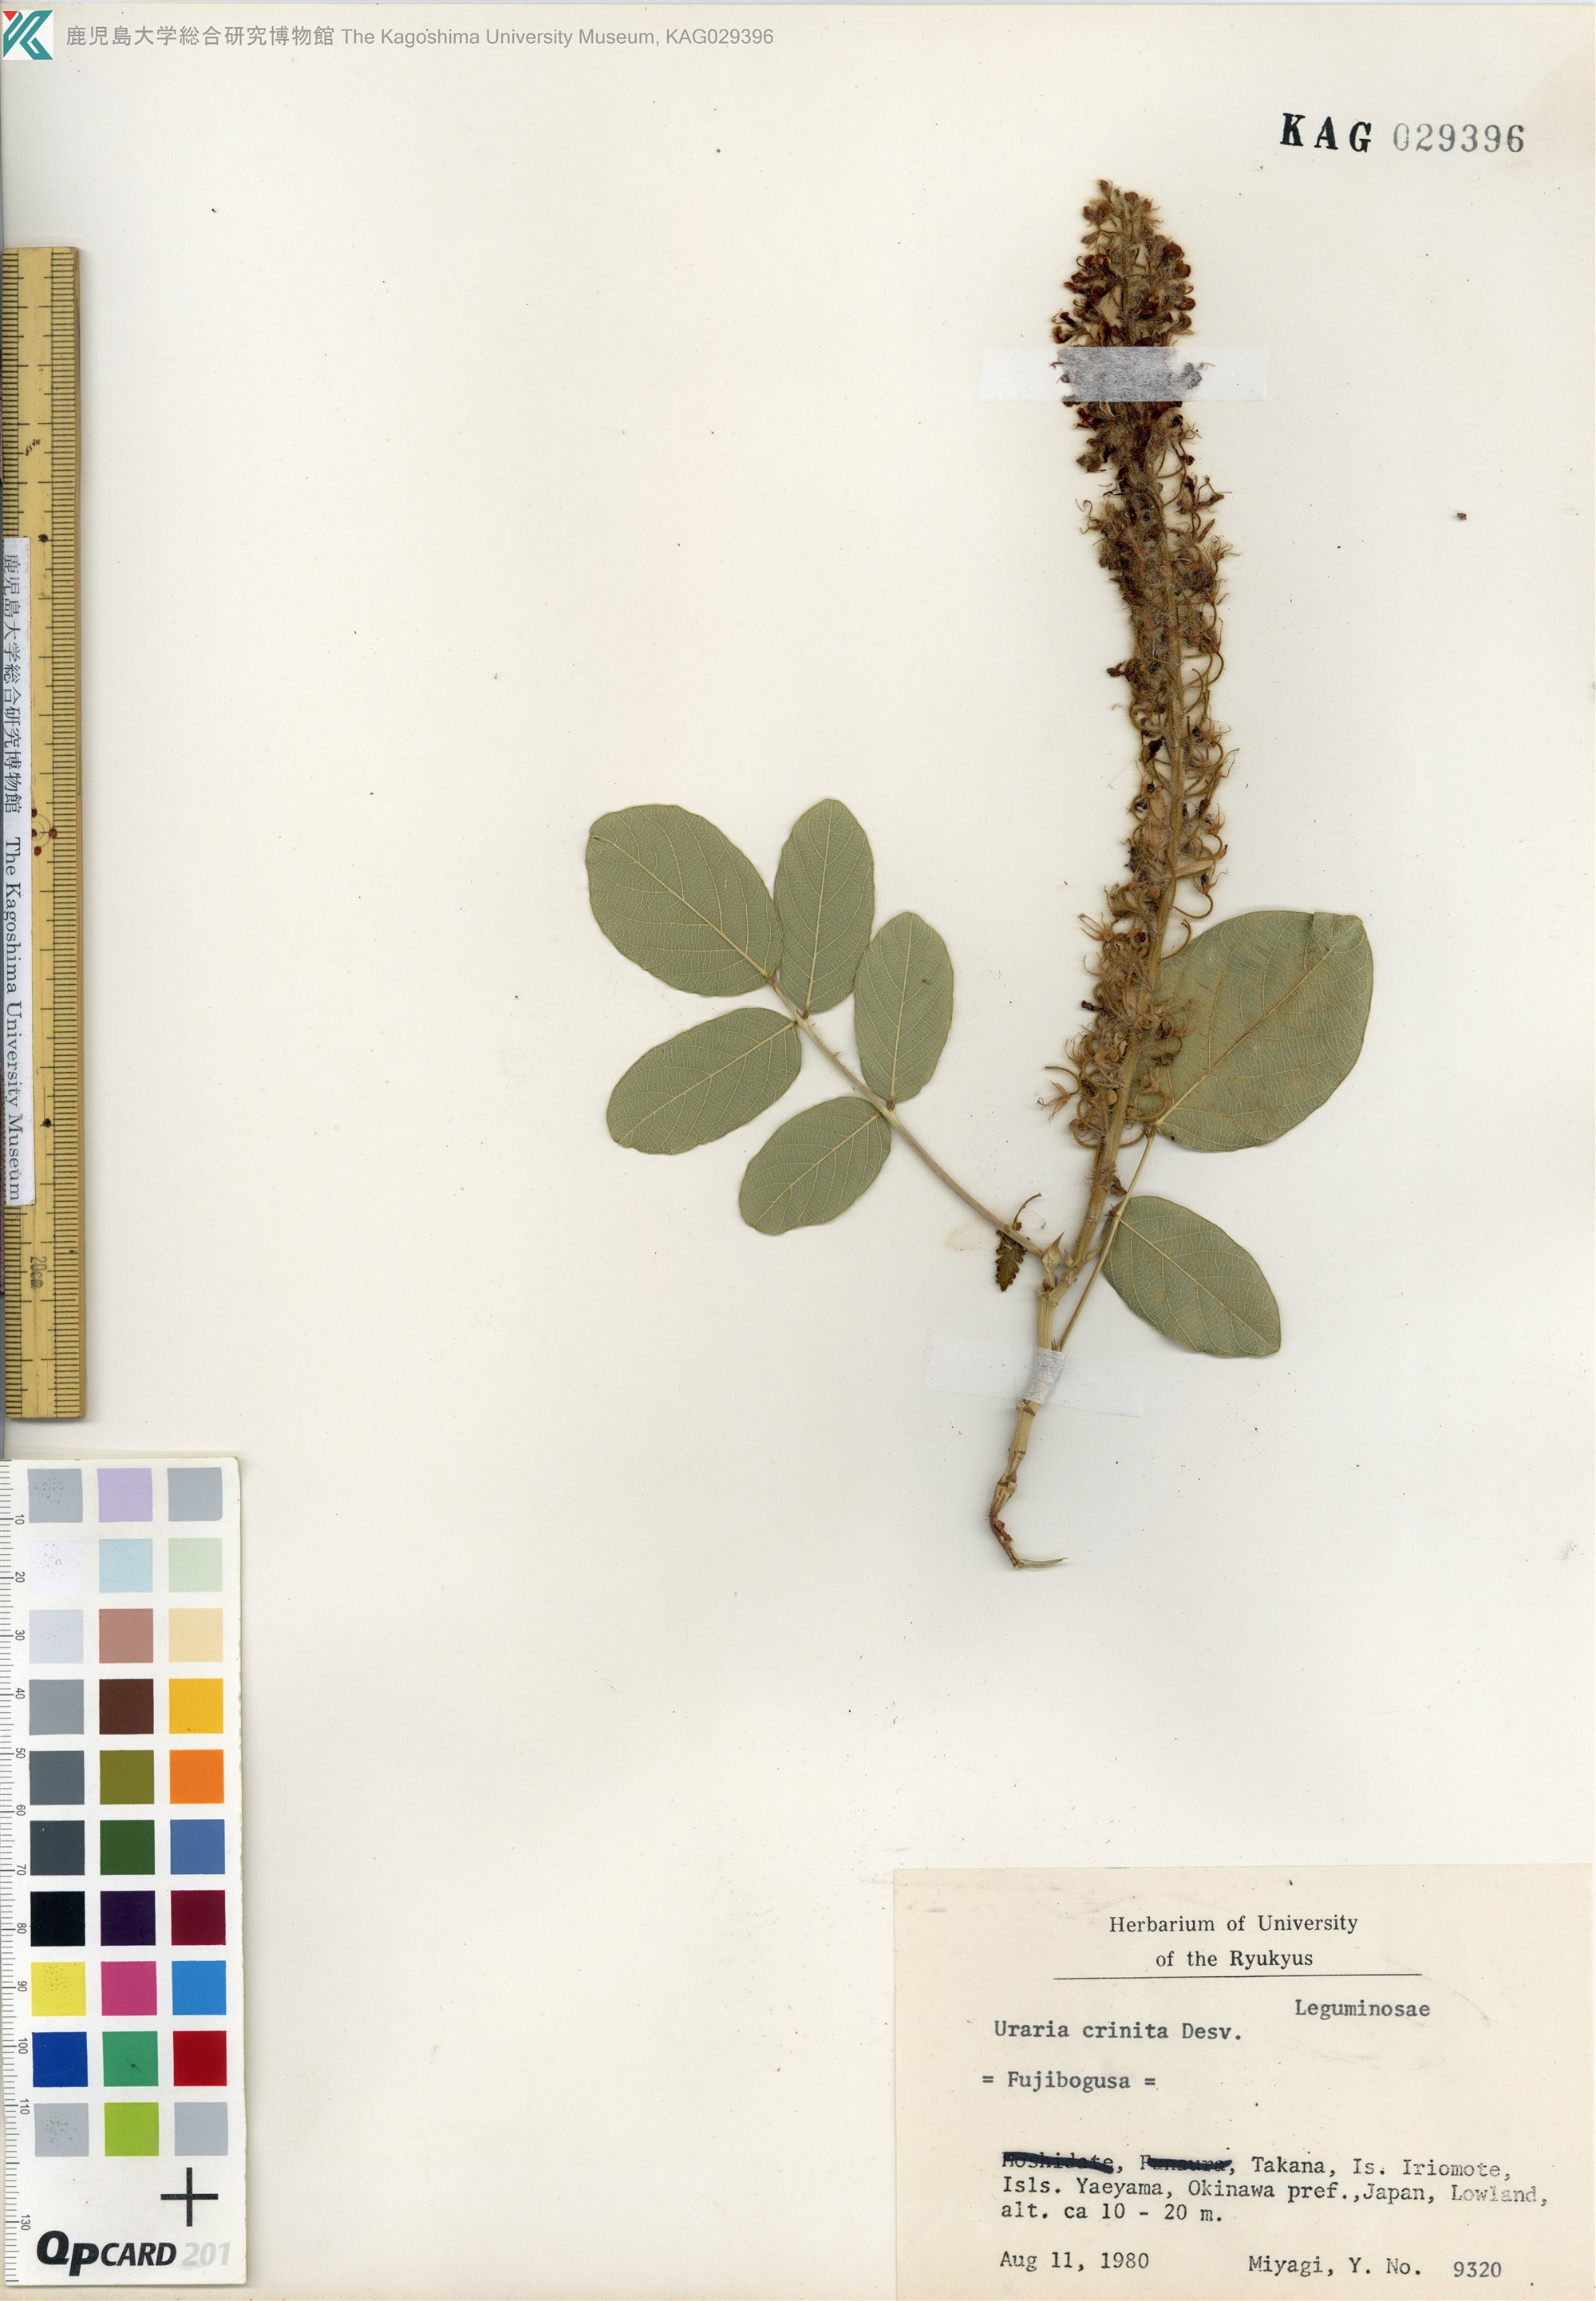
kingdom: Plantae
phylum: Tracheophyta
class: Magnoliopsida
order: Fabales
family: Fabaceae
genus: Uraria
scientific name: Uraria crinita
